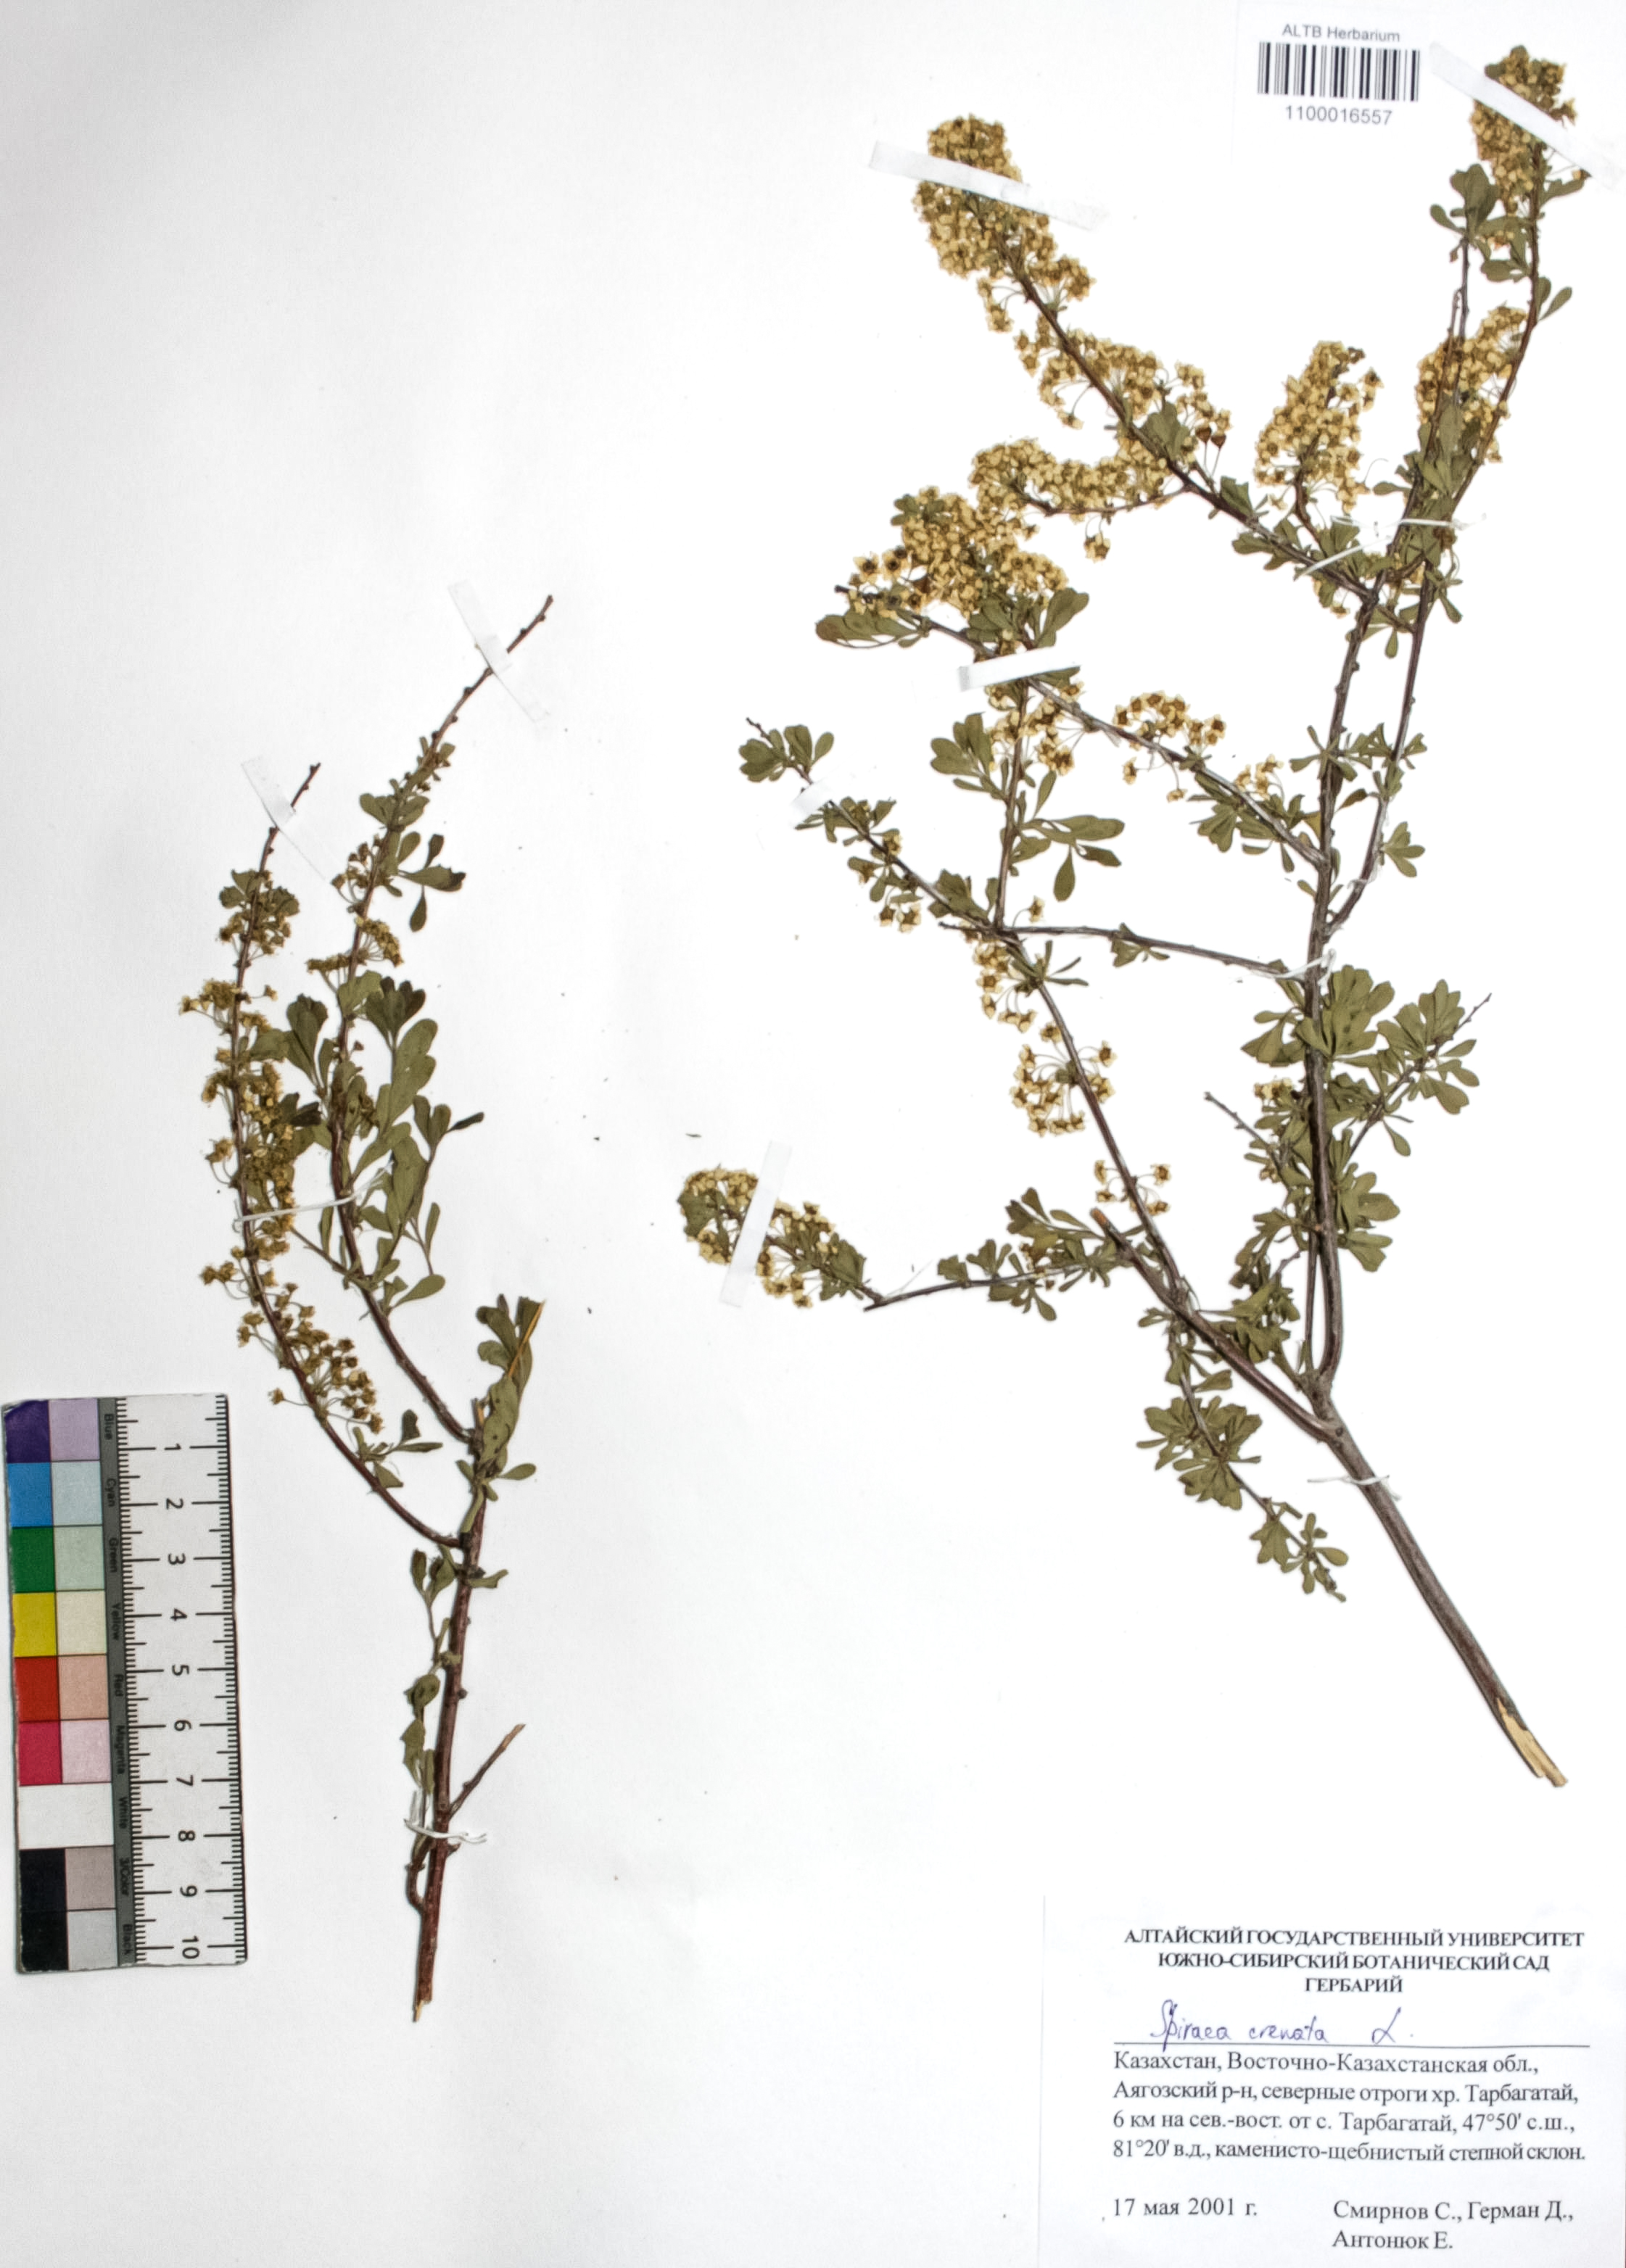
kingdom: Plantae
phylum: Tracheophyta
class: Magnoliopsida
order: Rosales
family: Rosaceae
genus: Spiraea
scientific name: Spiraea crenata
